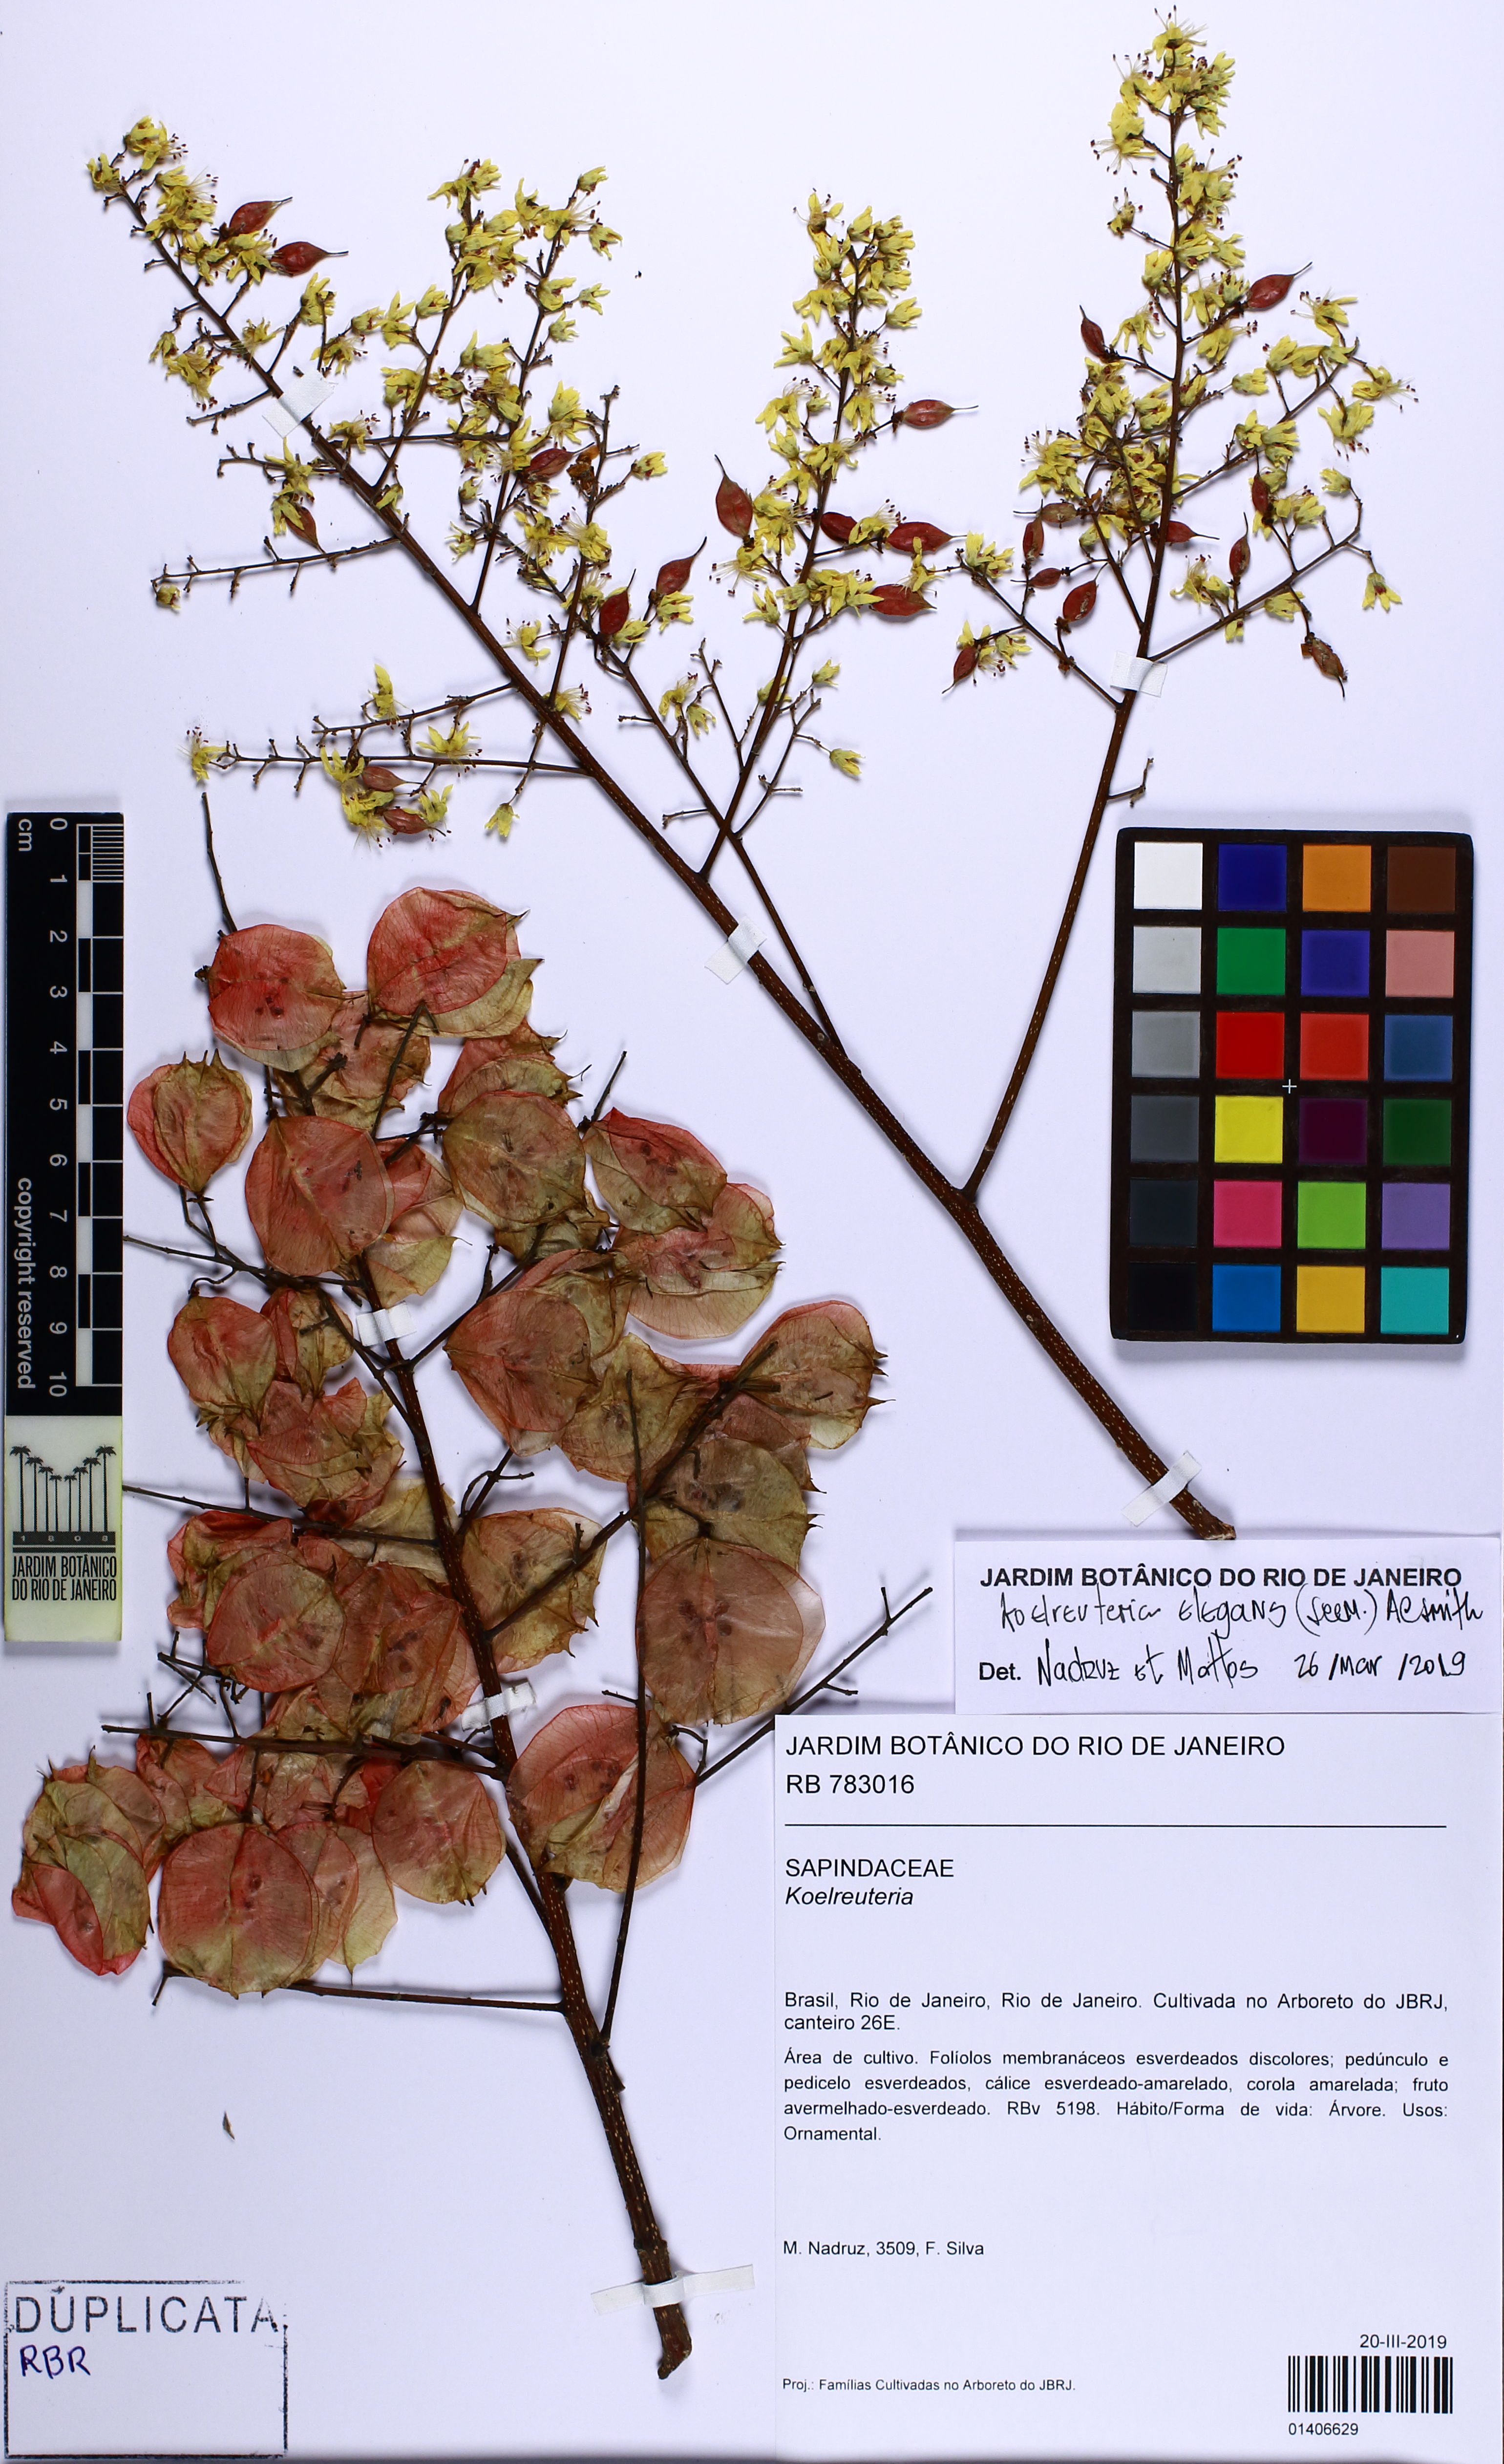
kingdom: Plantae
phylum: Tracheophyta
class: Magnoliopsida
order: Sapindales
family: Sapindaceae
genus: Koelreuteria
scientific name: Koelreuteria elegans
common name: Chinese flame tree
